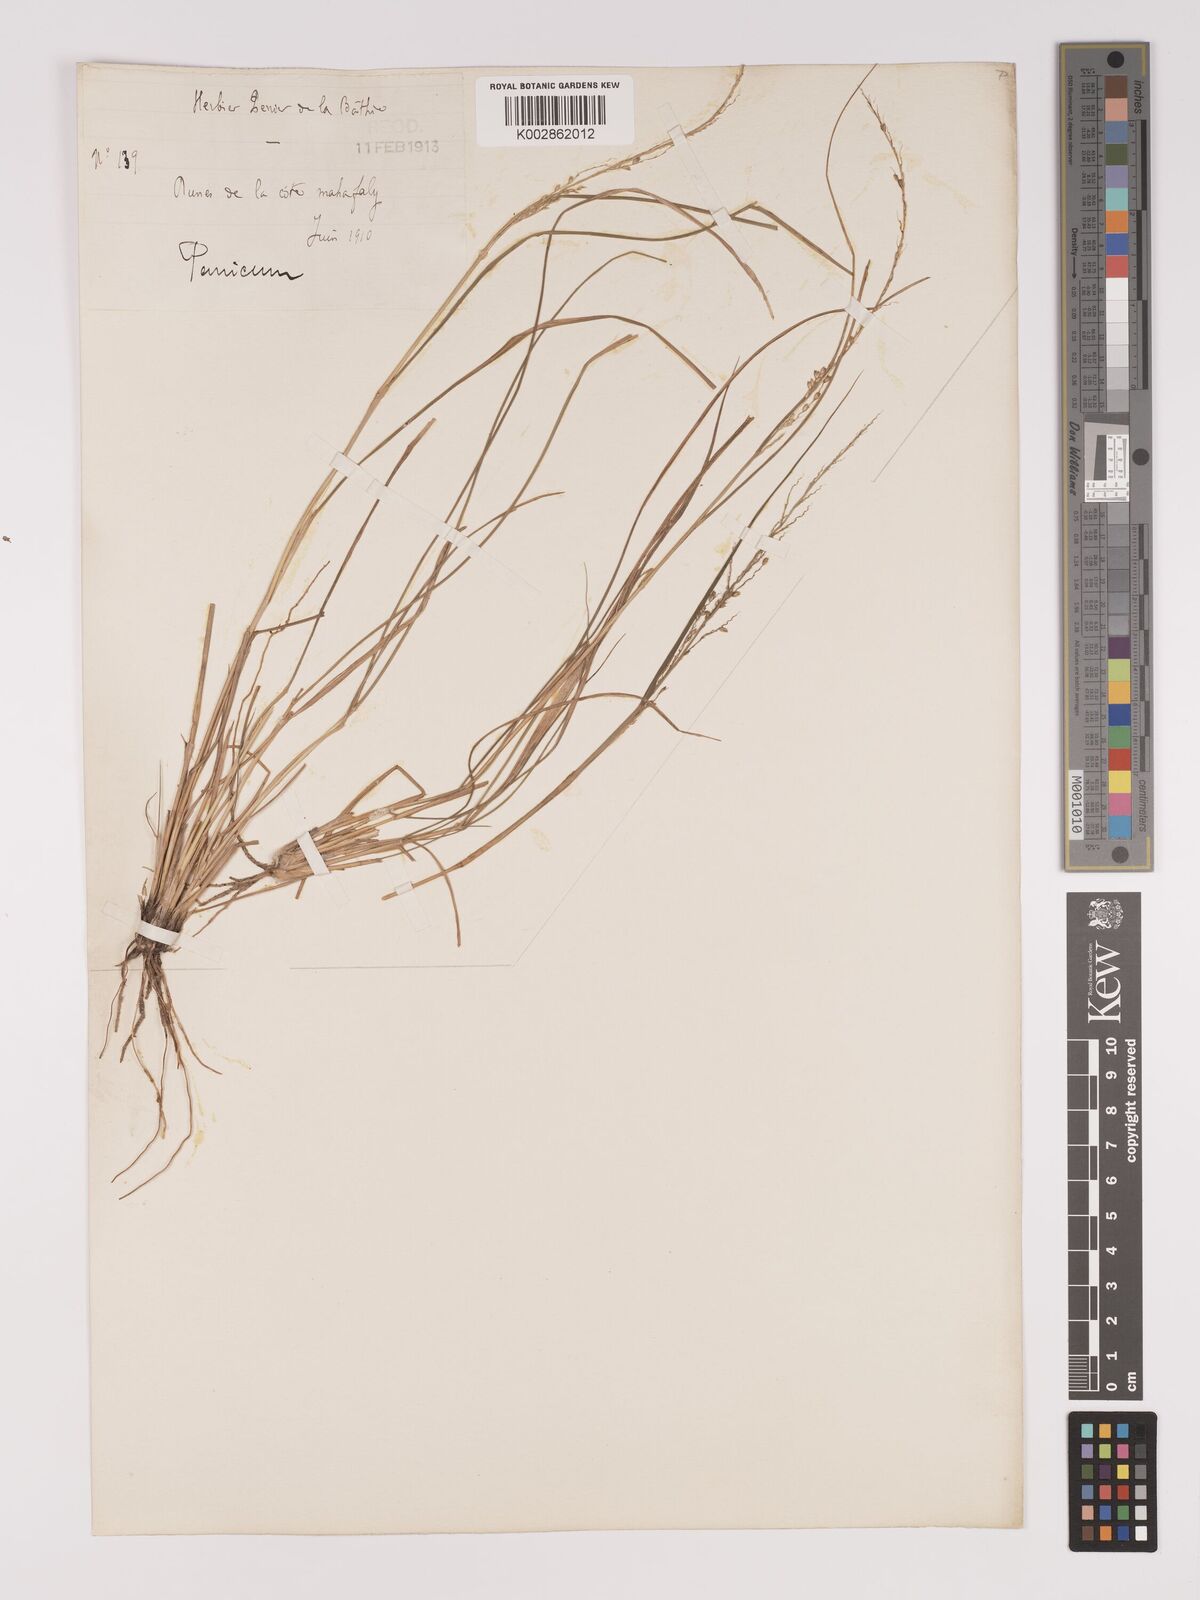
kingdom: Plantae
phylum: Tracheophyta
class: Liliopsida
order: Poales
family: Poaceae
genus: Setaria
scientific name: Setaria scottii
